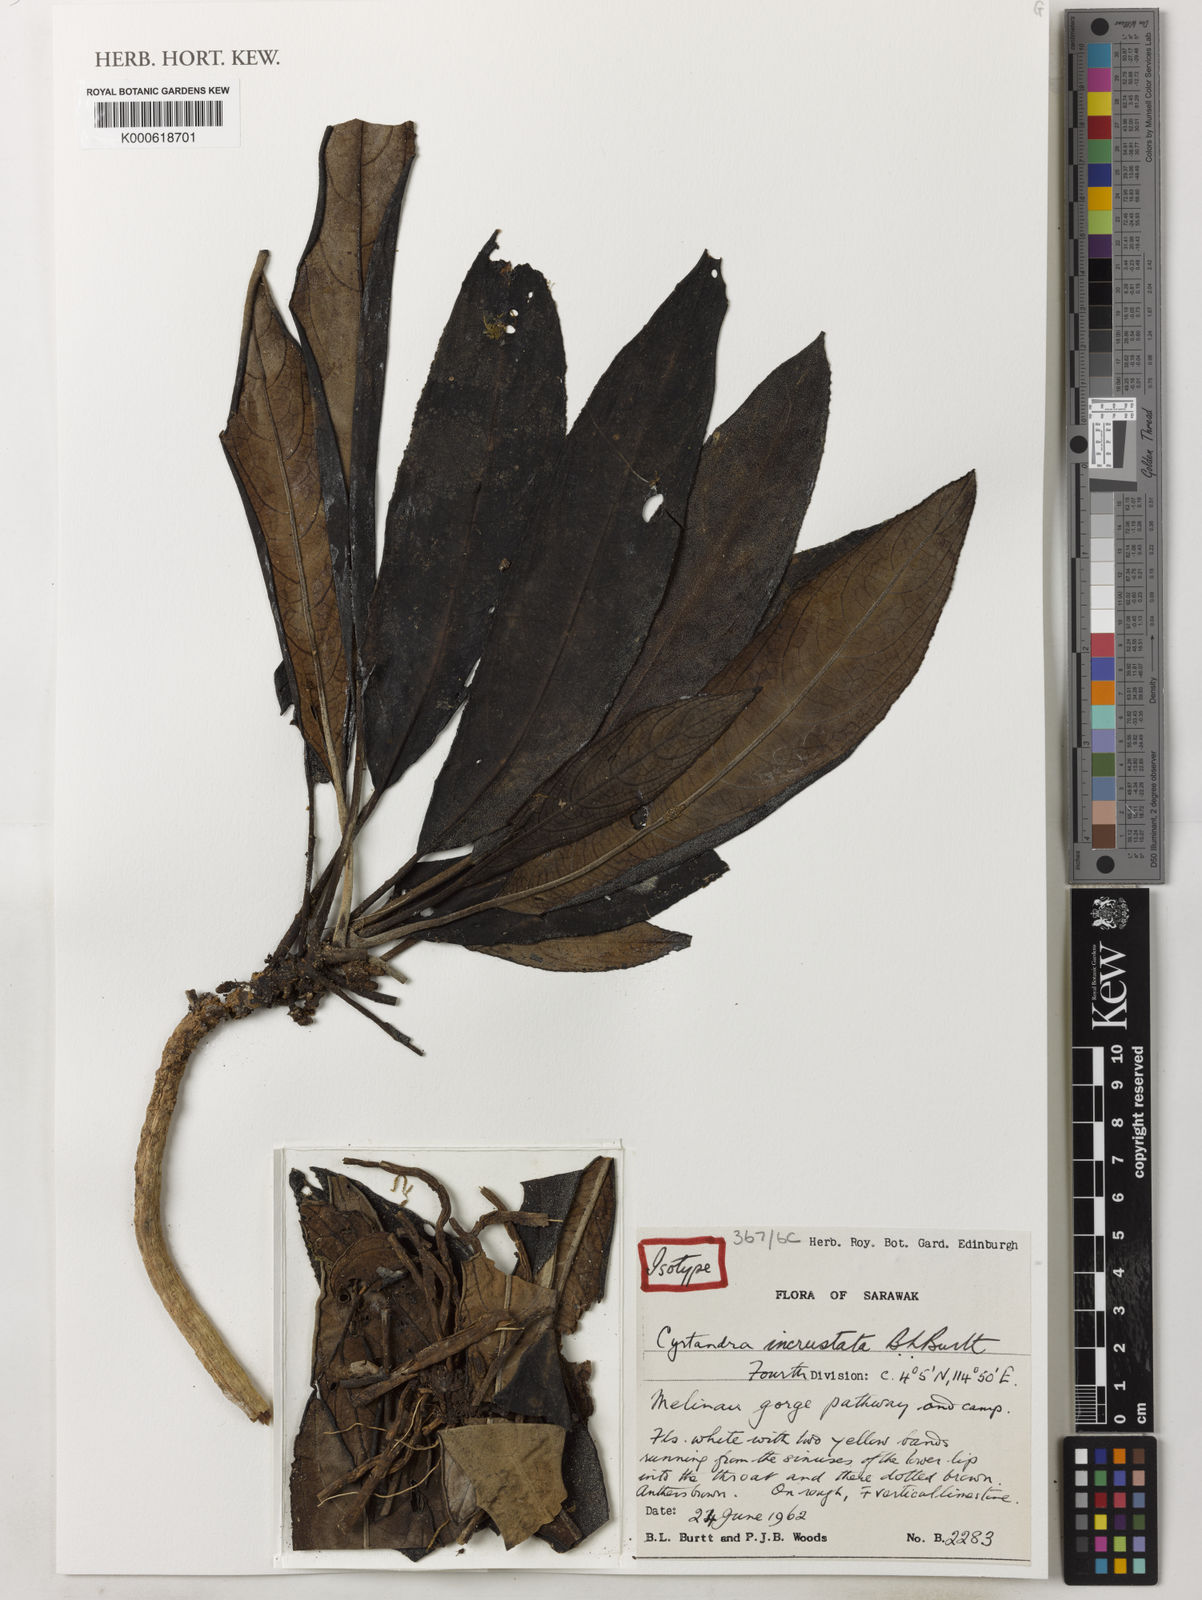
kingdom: Plantae
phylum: Tracheophyta
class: Magnoliopsida
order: Lamiales
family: Gesneriaceae
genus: Cyrtandra
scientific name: Cyrtandra incrustata
